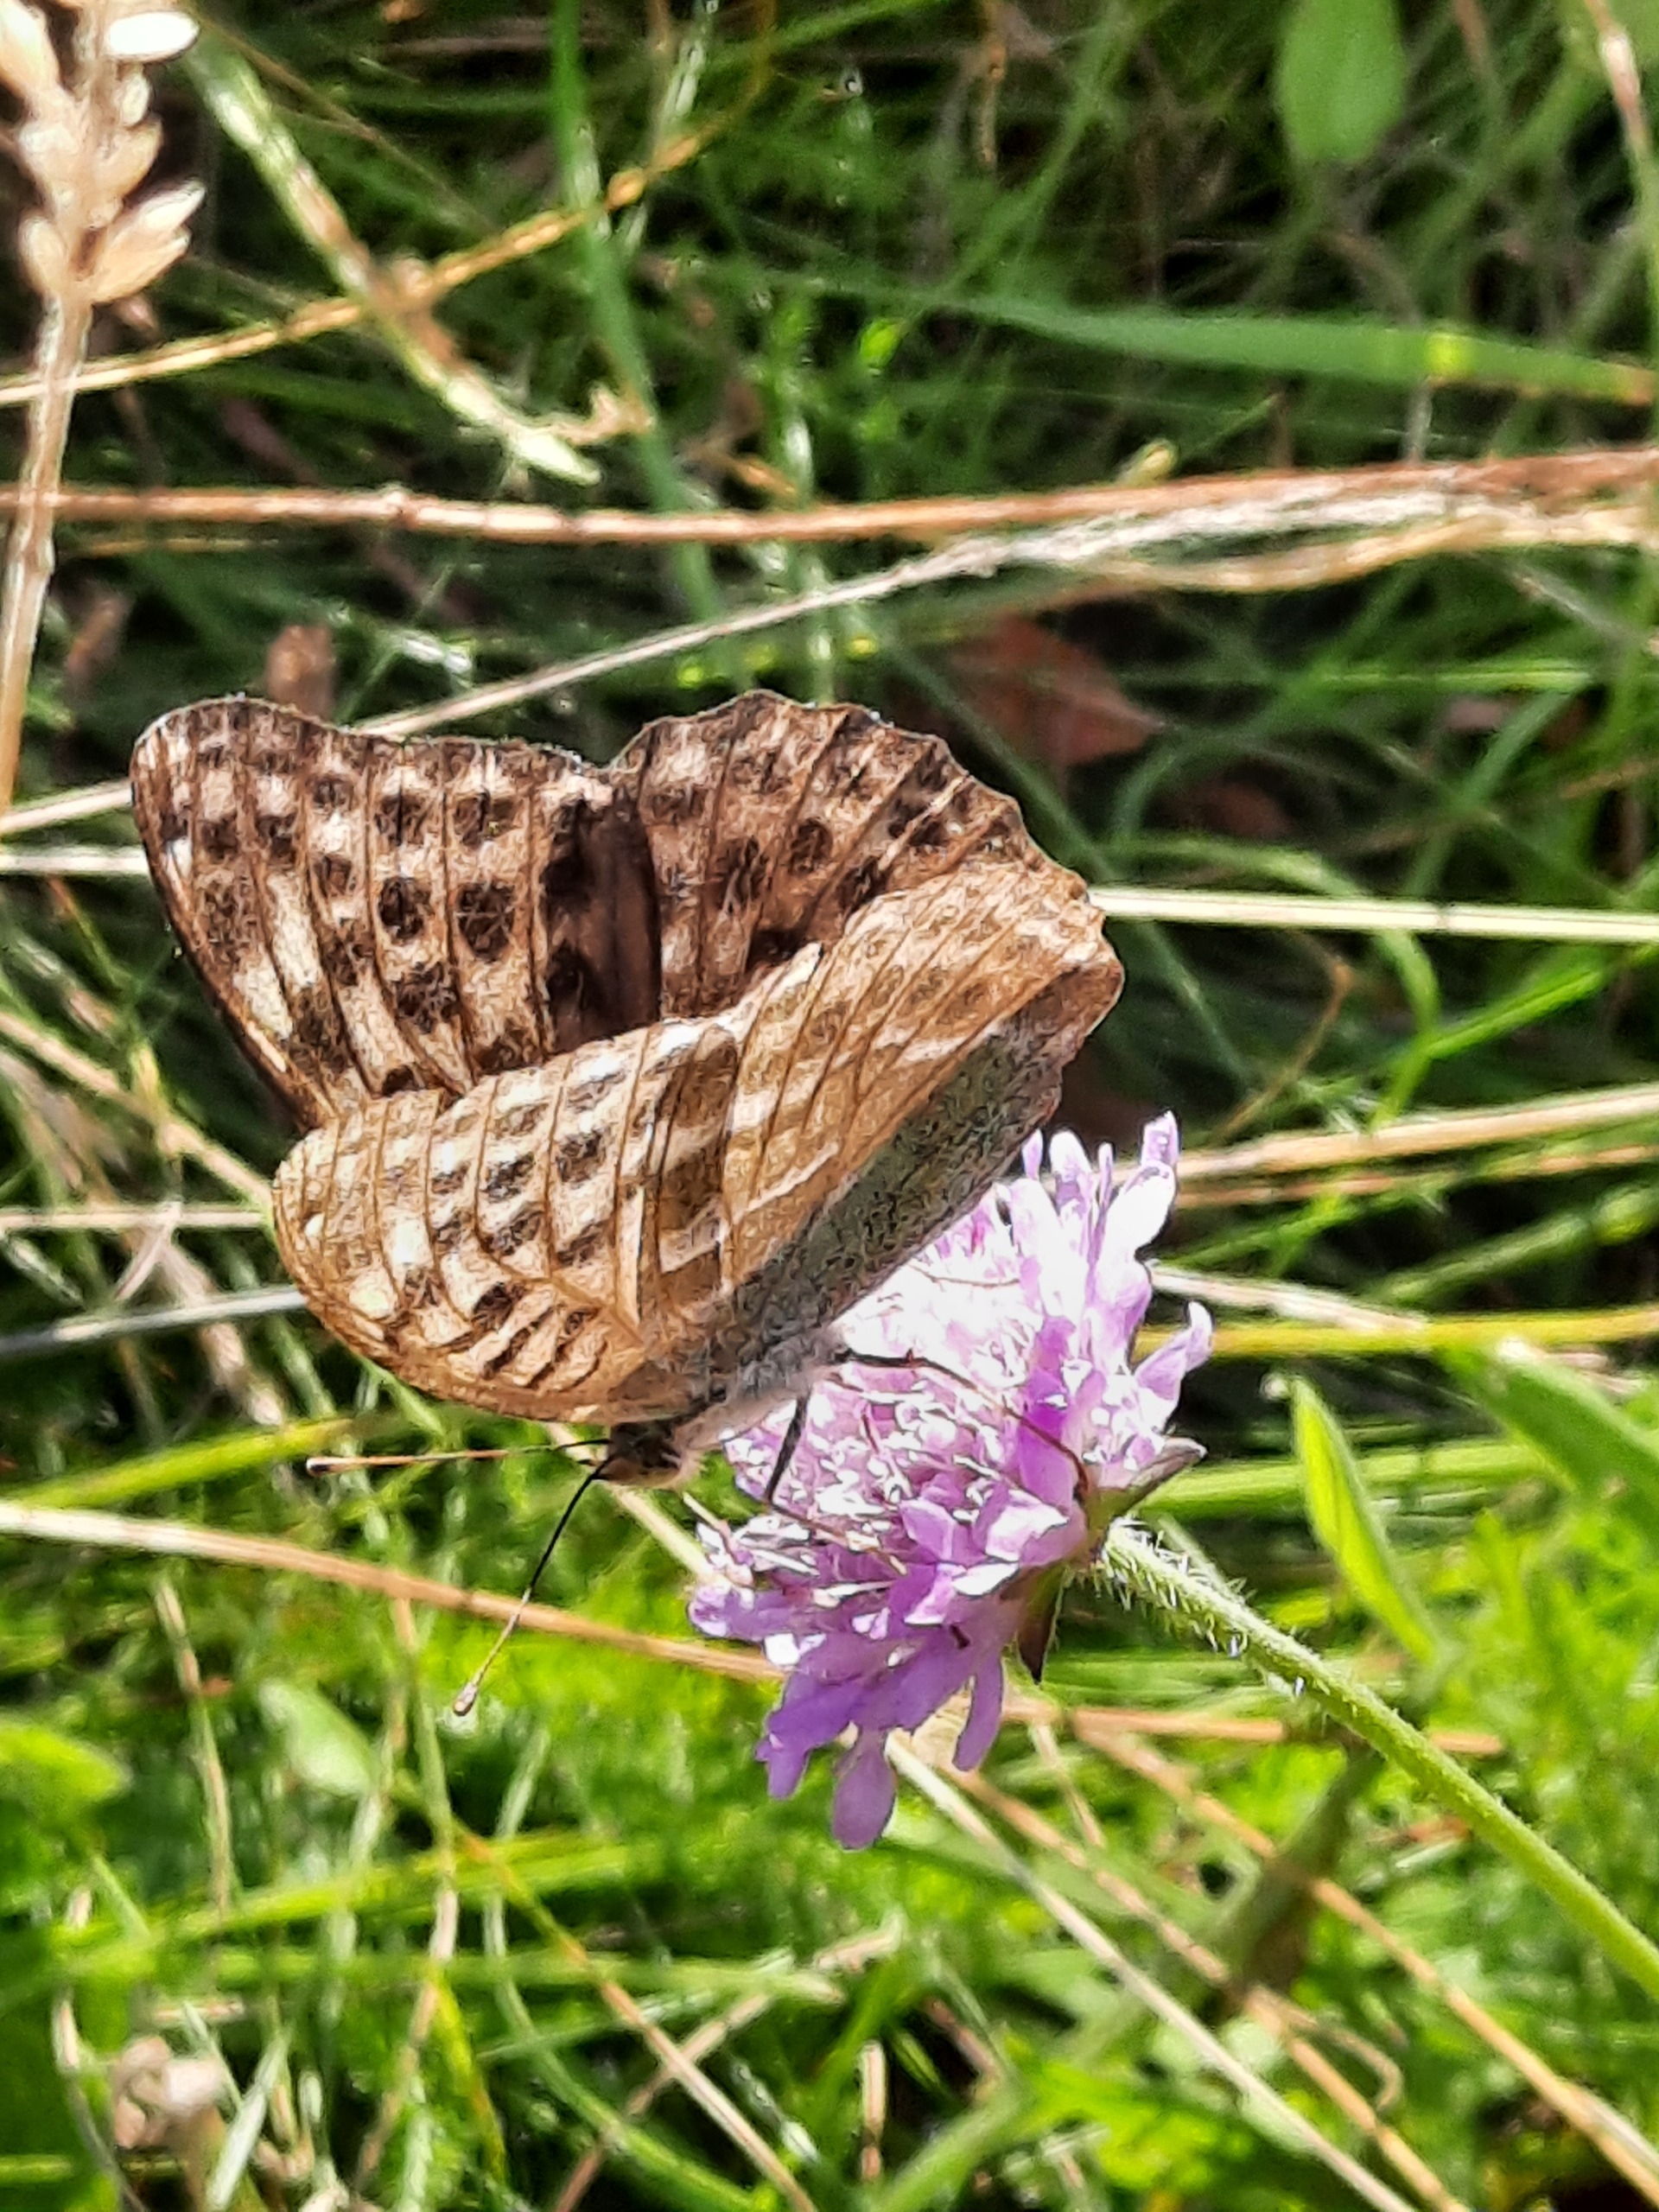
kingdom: Animalia
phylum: Arthropoda
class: Insecta
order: Lepidoptera
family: Nymphalidae
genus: Argynnis
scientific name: Argynnis paphia
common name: Kejserkåbe
